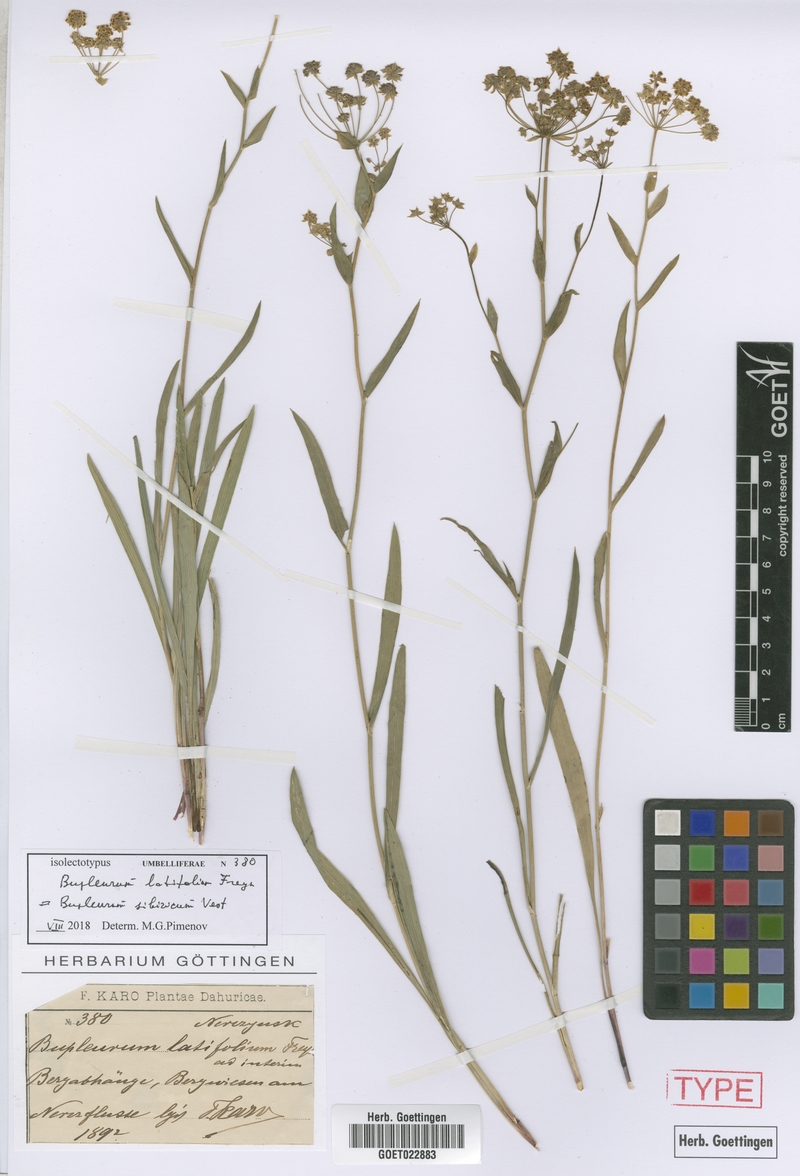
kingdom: Plantae
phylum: Tracheophyta
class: Magnoliopsida
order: Apiales
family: Apiaceae
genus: Bupleurum
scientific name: Bupleurum sibiricum
